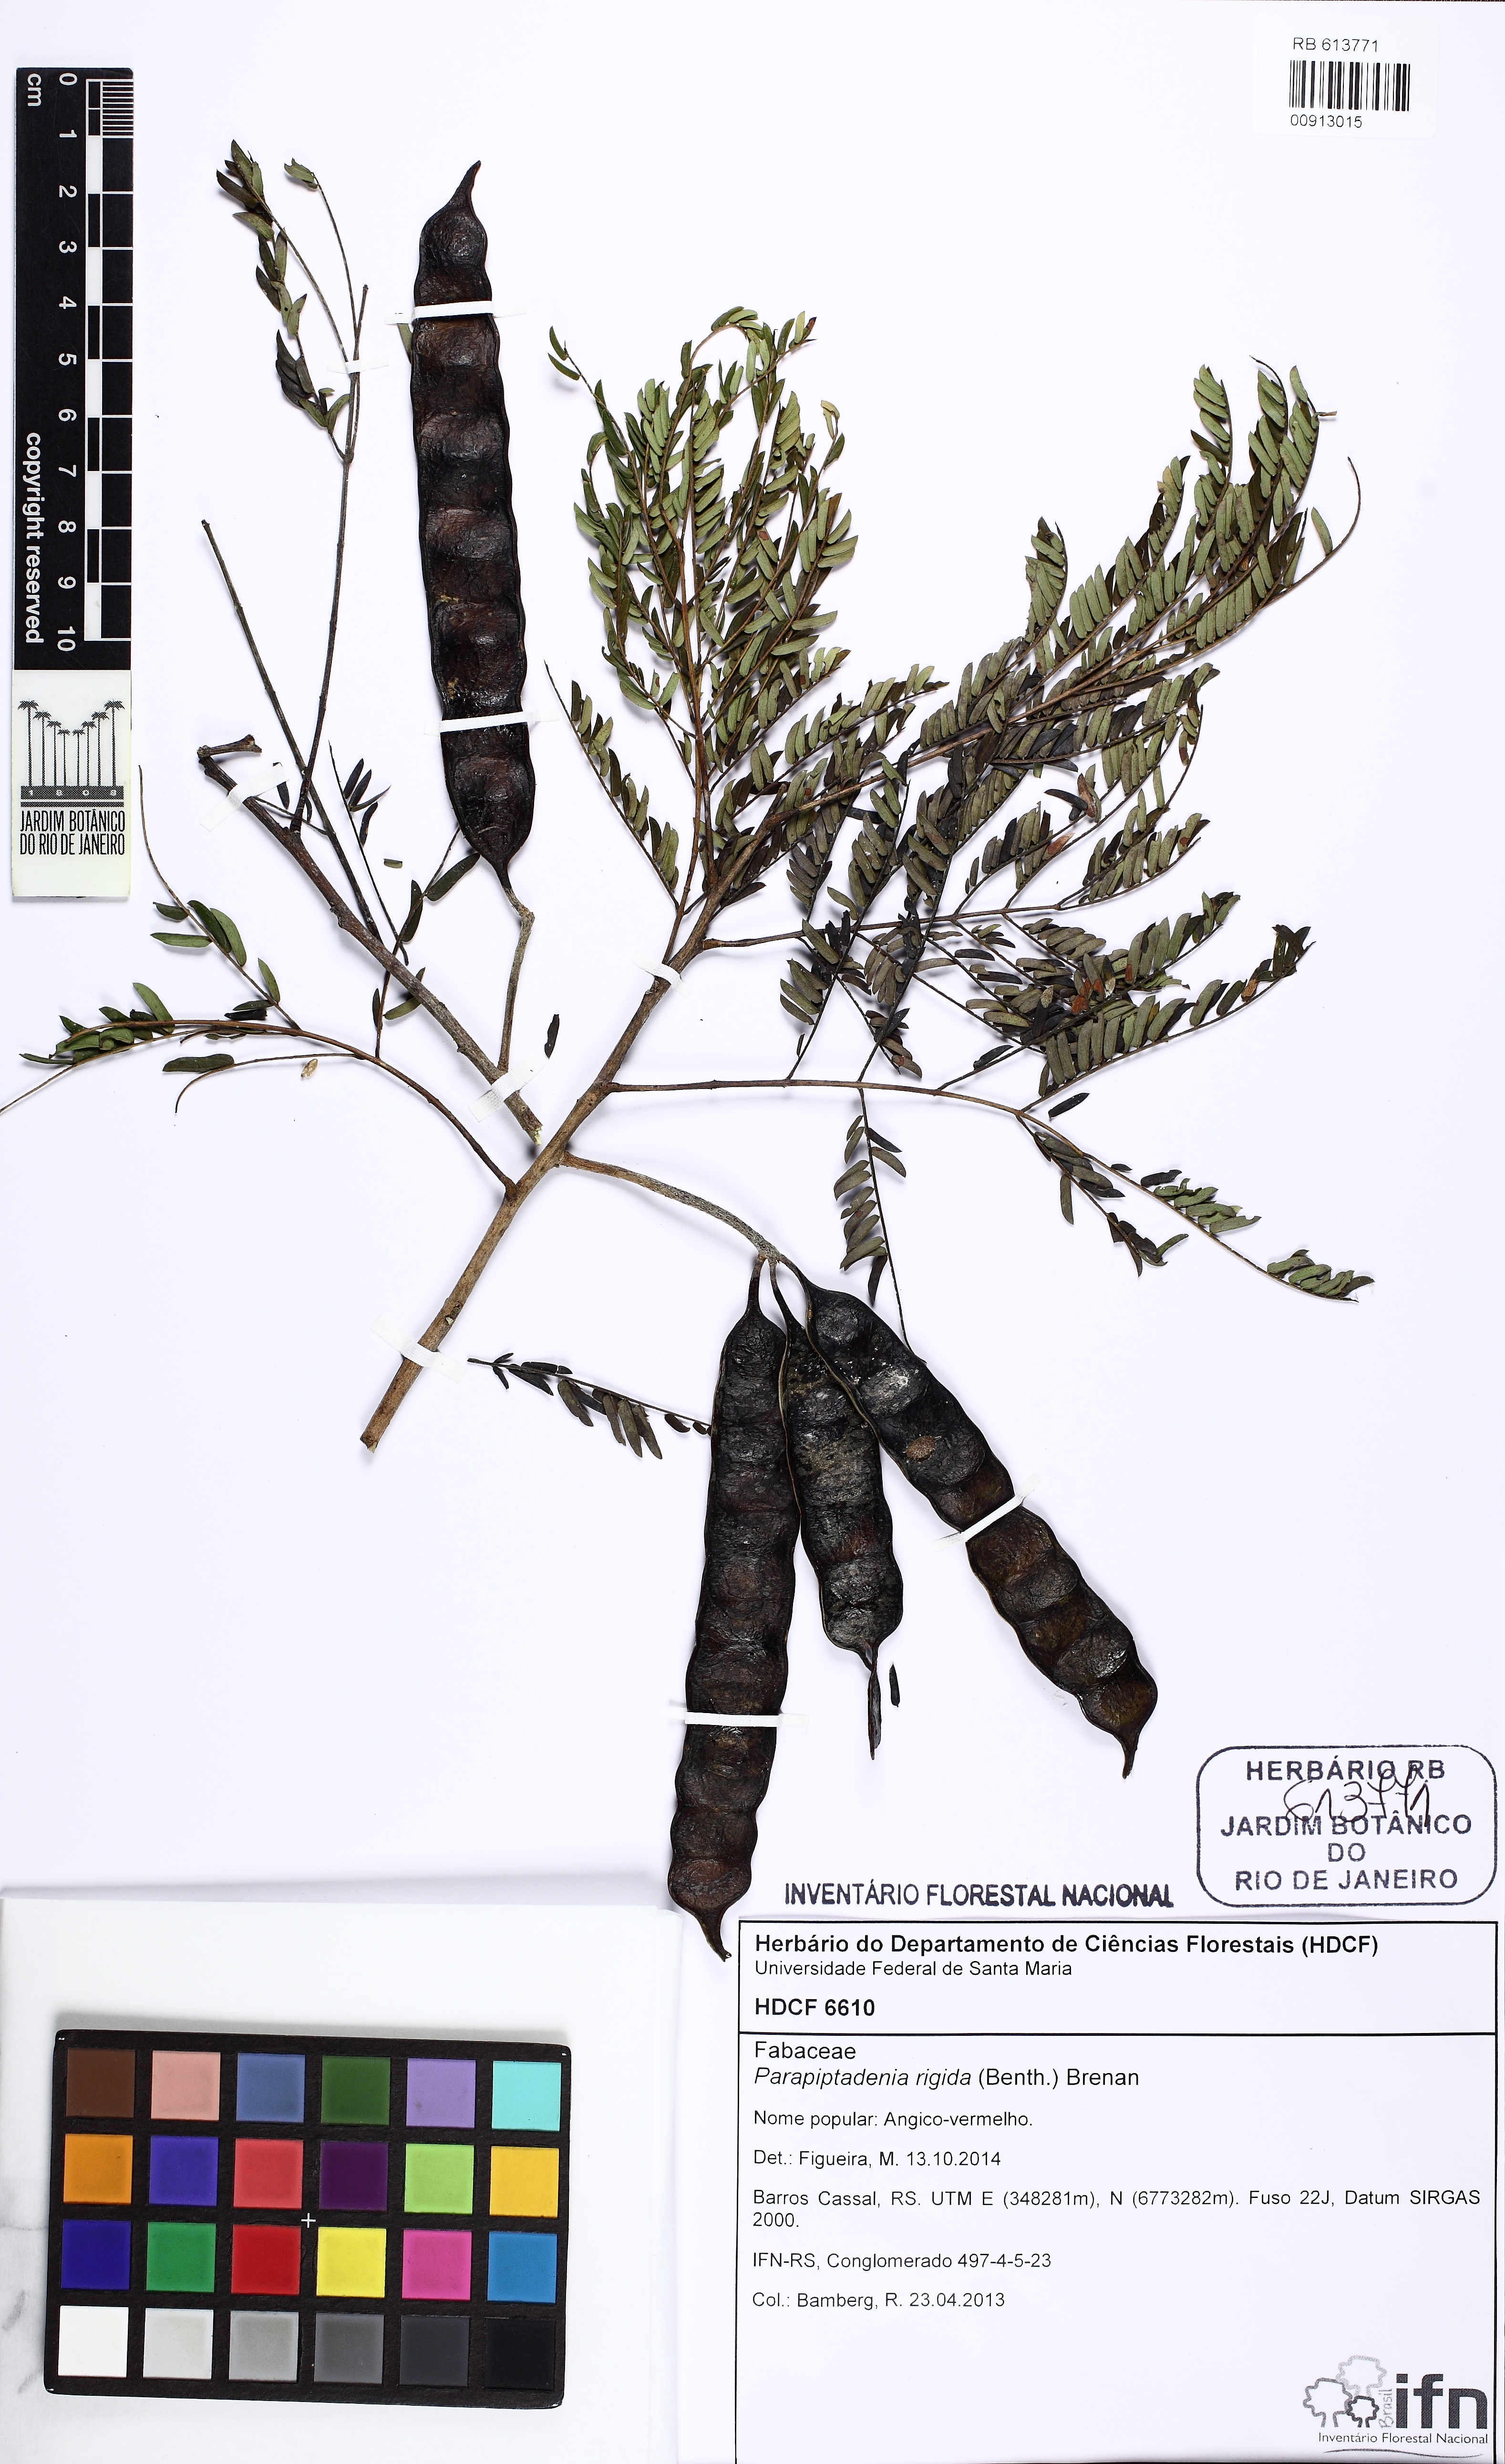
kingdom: Plantae
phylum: Tracheophyta
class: Magnoliopsida
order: Fabales
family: Fabaceae
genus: Parapiptadenia
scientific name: Parapiptadenia rigida
